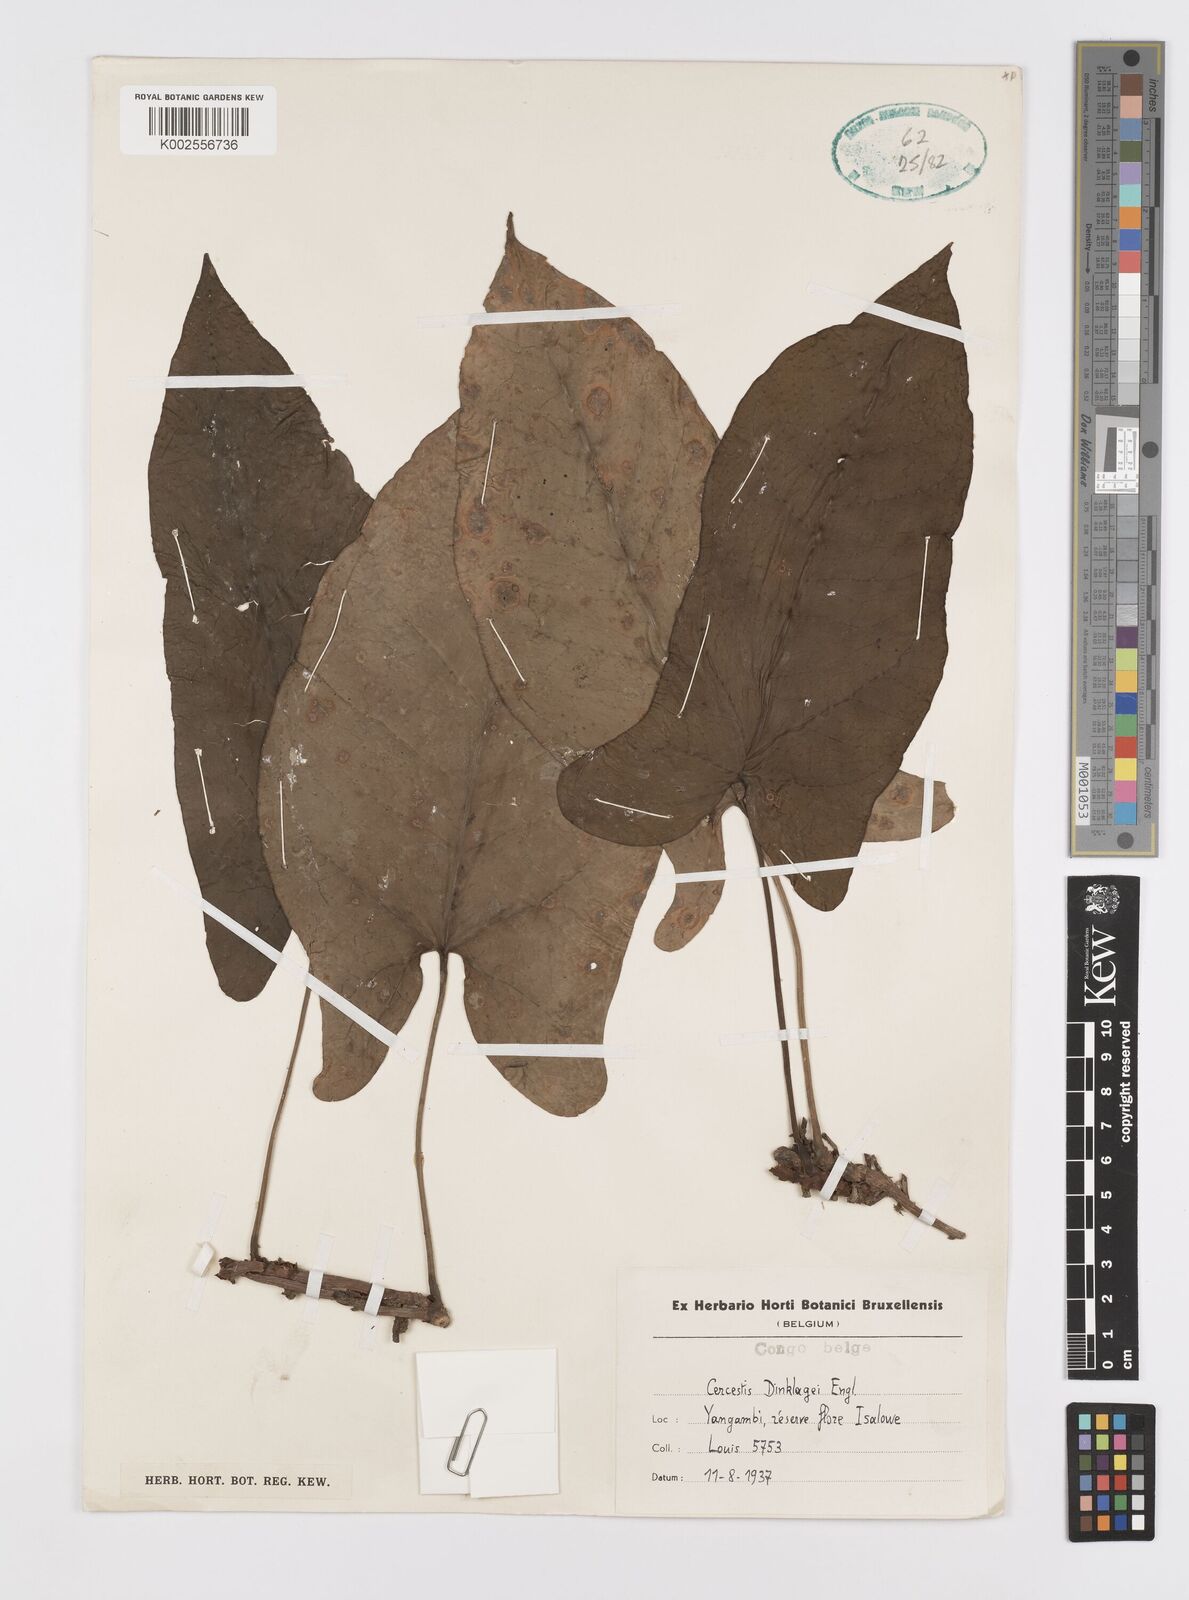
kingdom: Plantae
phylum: Tracheophyta
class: Liliopsida
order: Alismatales
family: Araceae
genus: Cercestis
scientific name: Cercestis dinklagei
